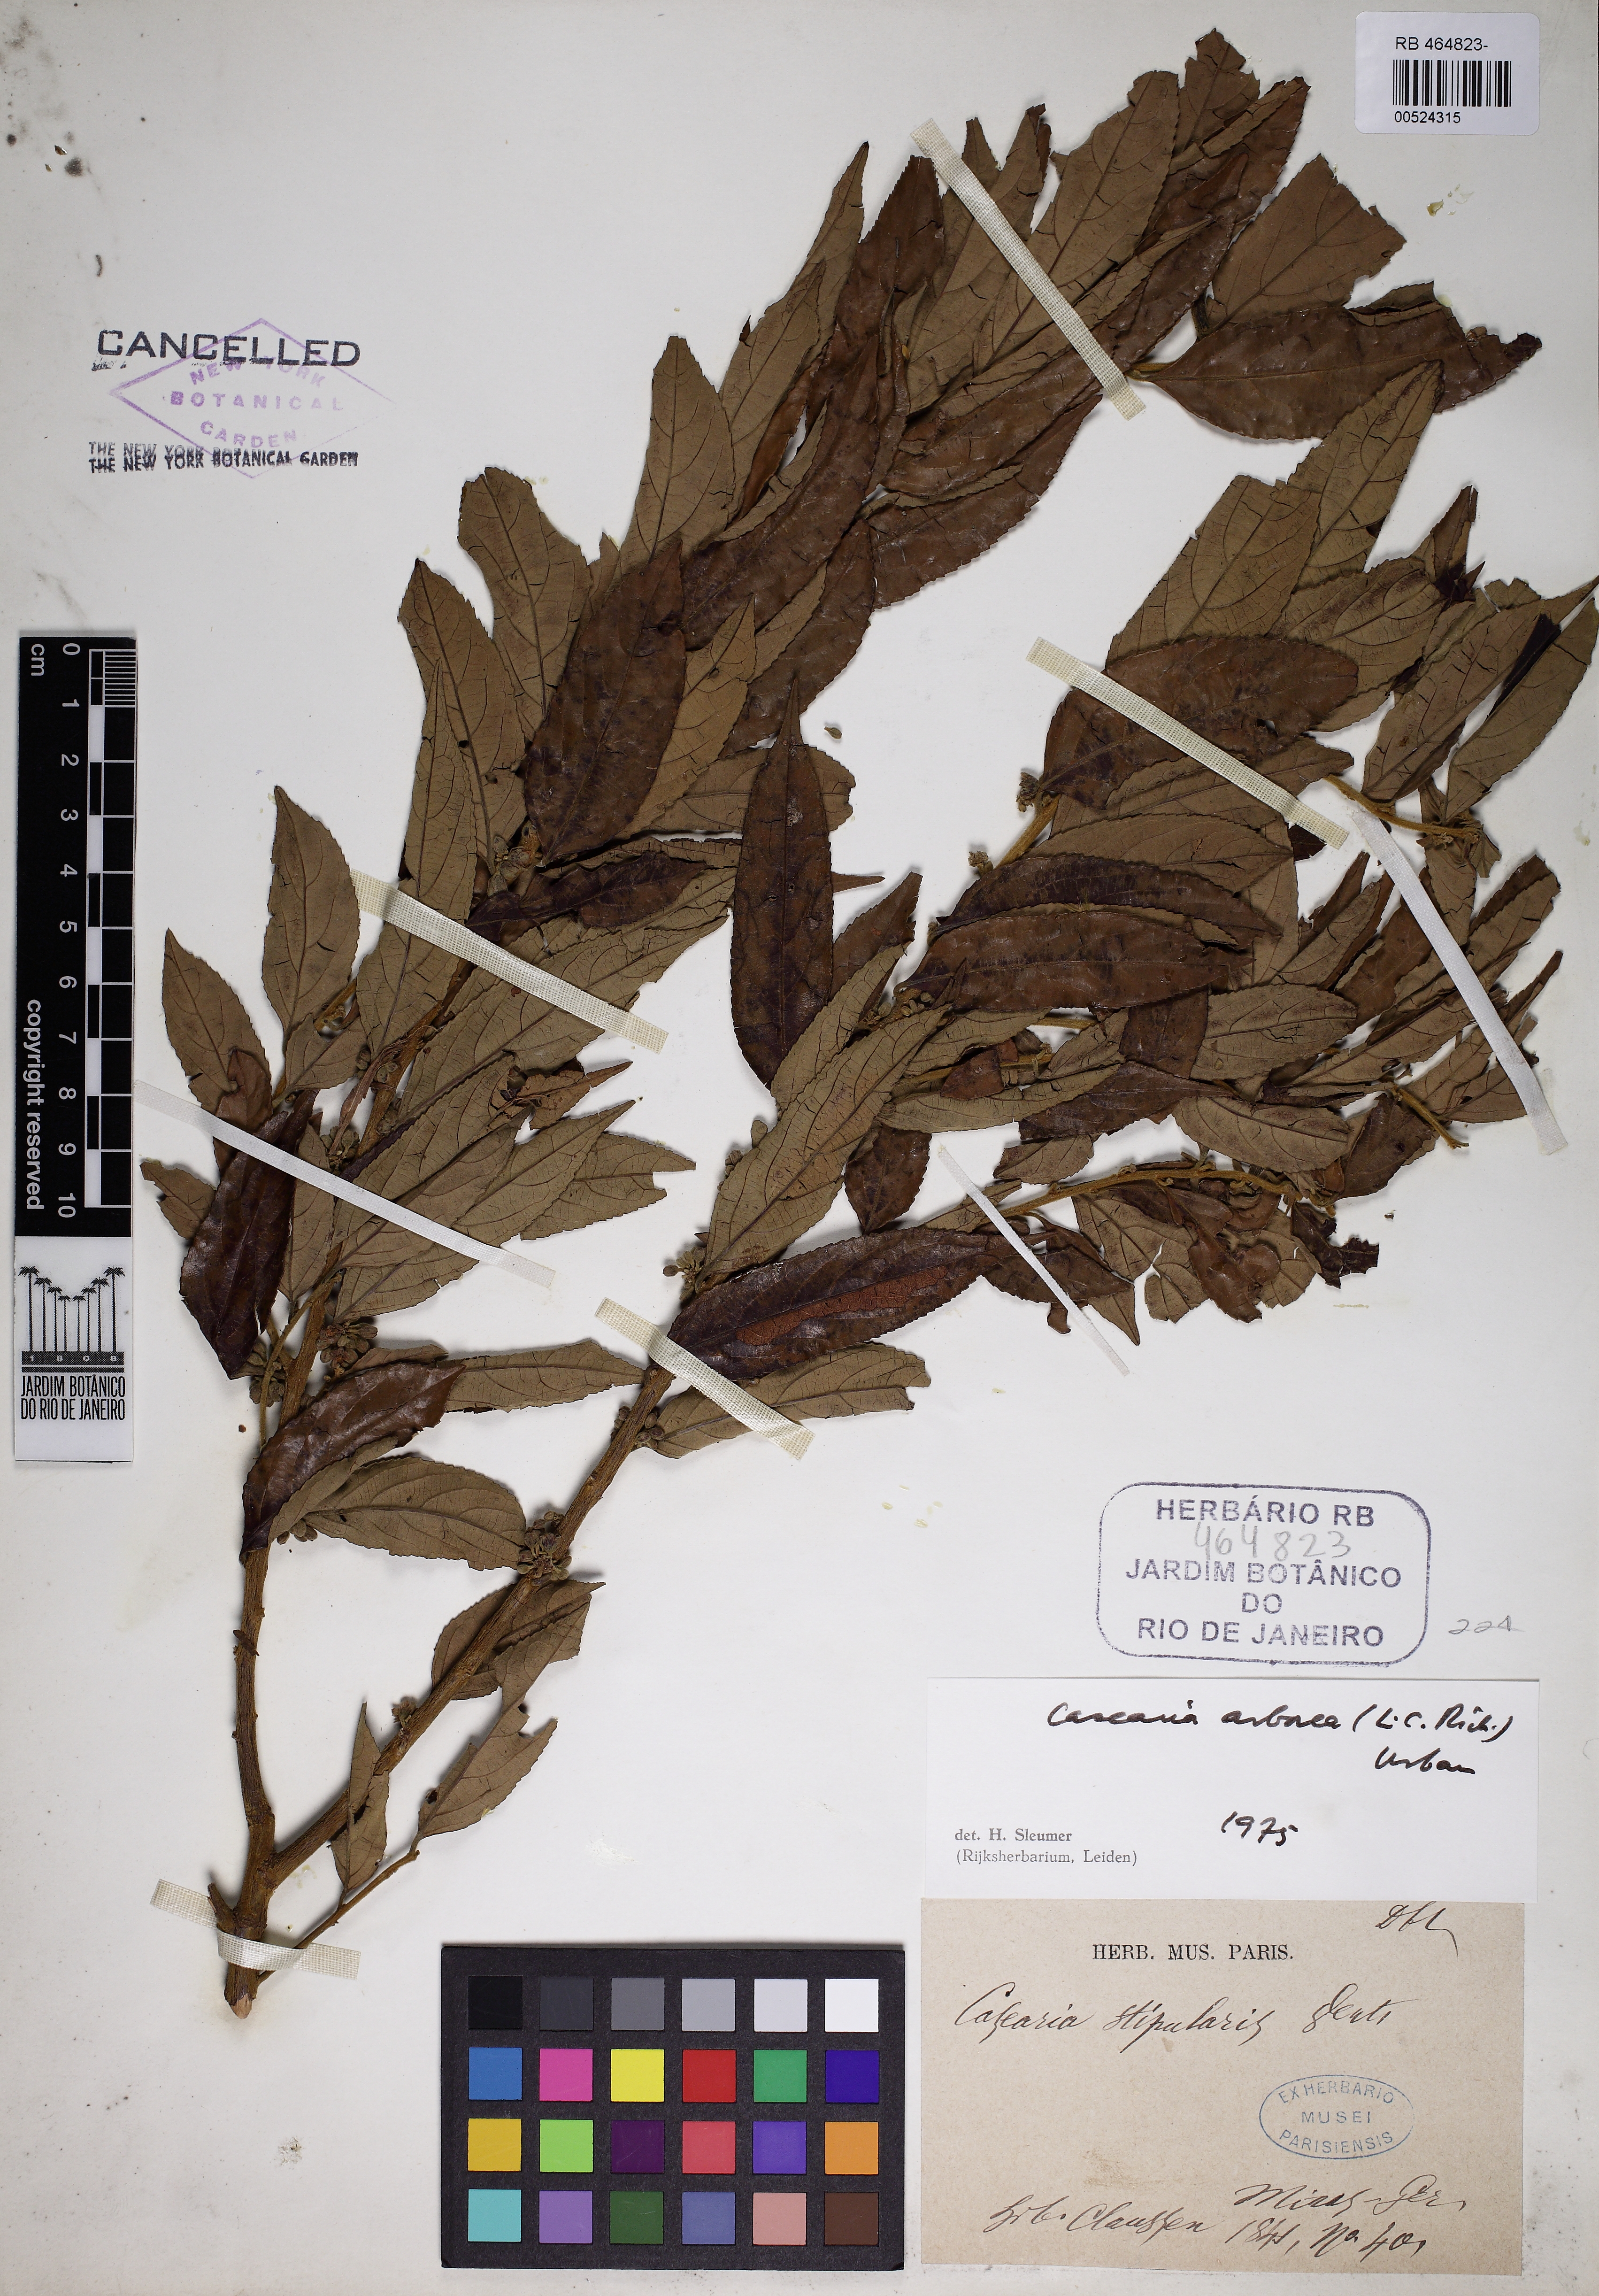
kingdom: Plantae
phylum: Tracheophyta
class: Magnoliopsida
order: Malpighiales
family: Salicaceae
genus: Casearia
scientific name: Casearia arborea
